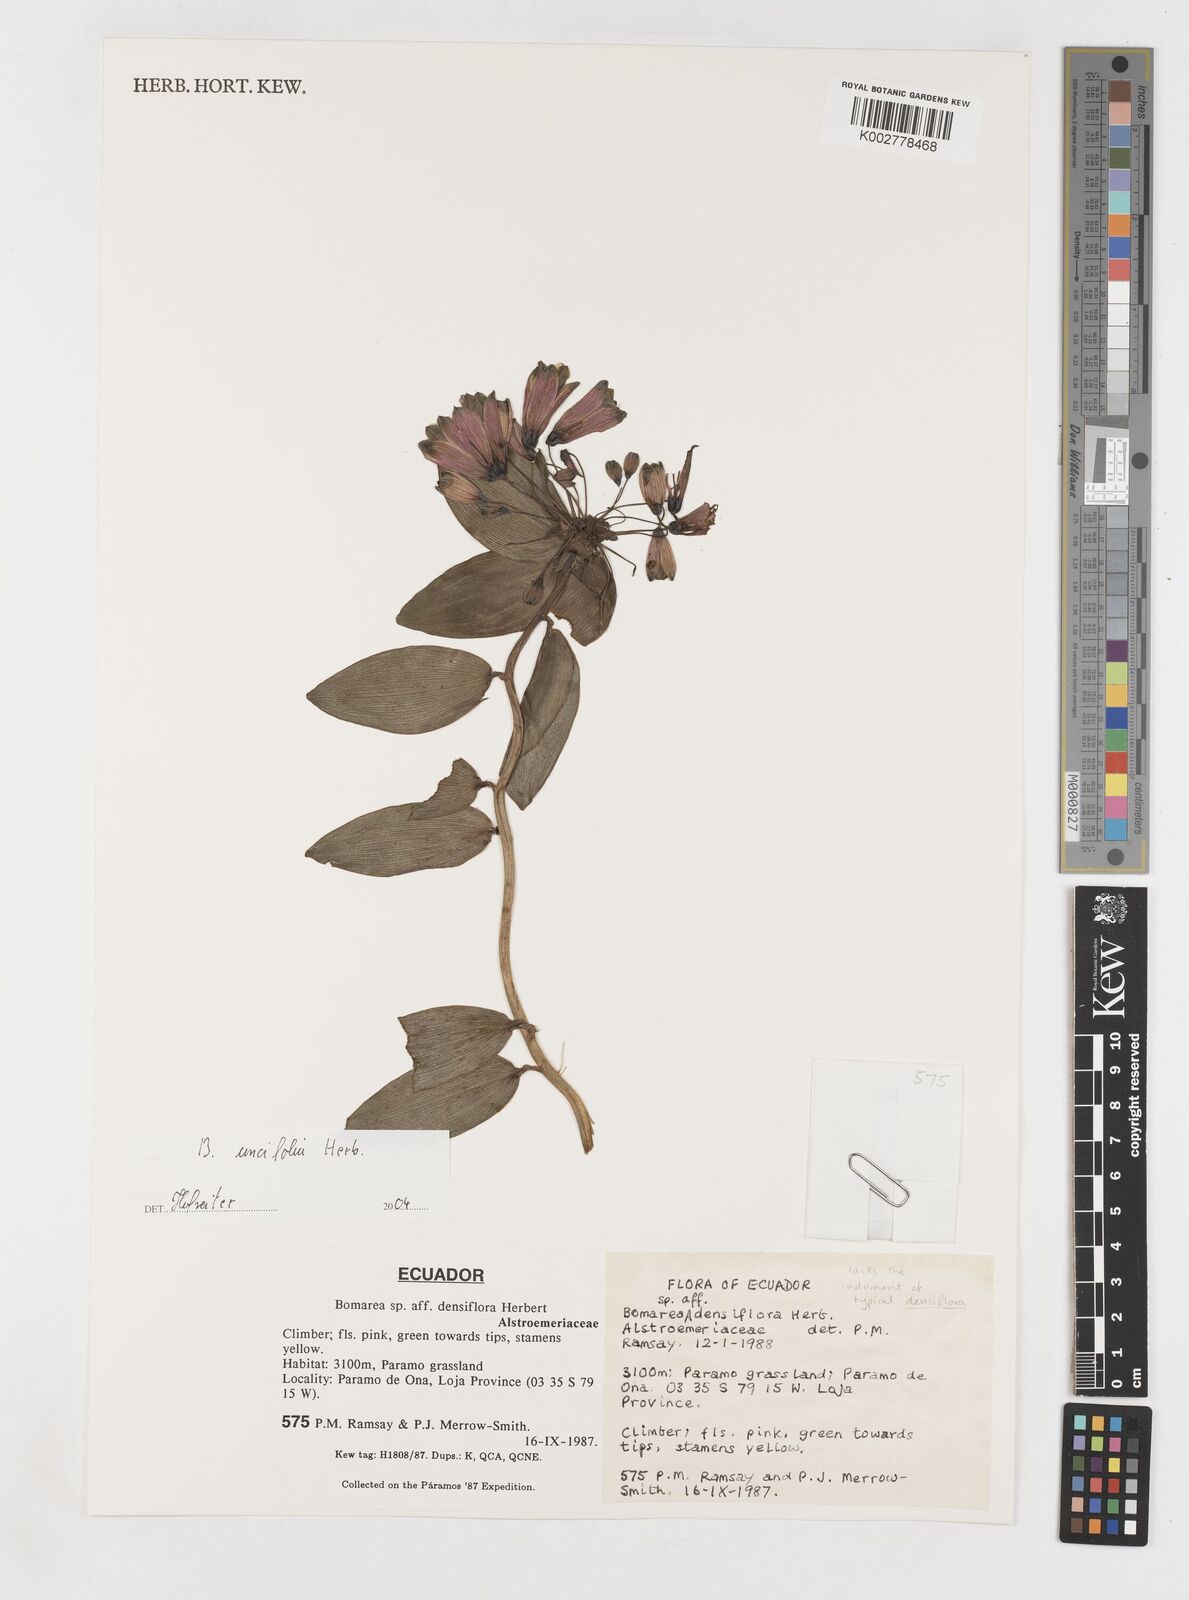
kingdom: Plantae
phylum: Tracheophyta
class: Liliopsida
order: Liliales
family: Alstroemeriaceae
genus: Bomarea
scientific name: Bomarea uncifolia
